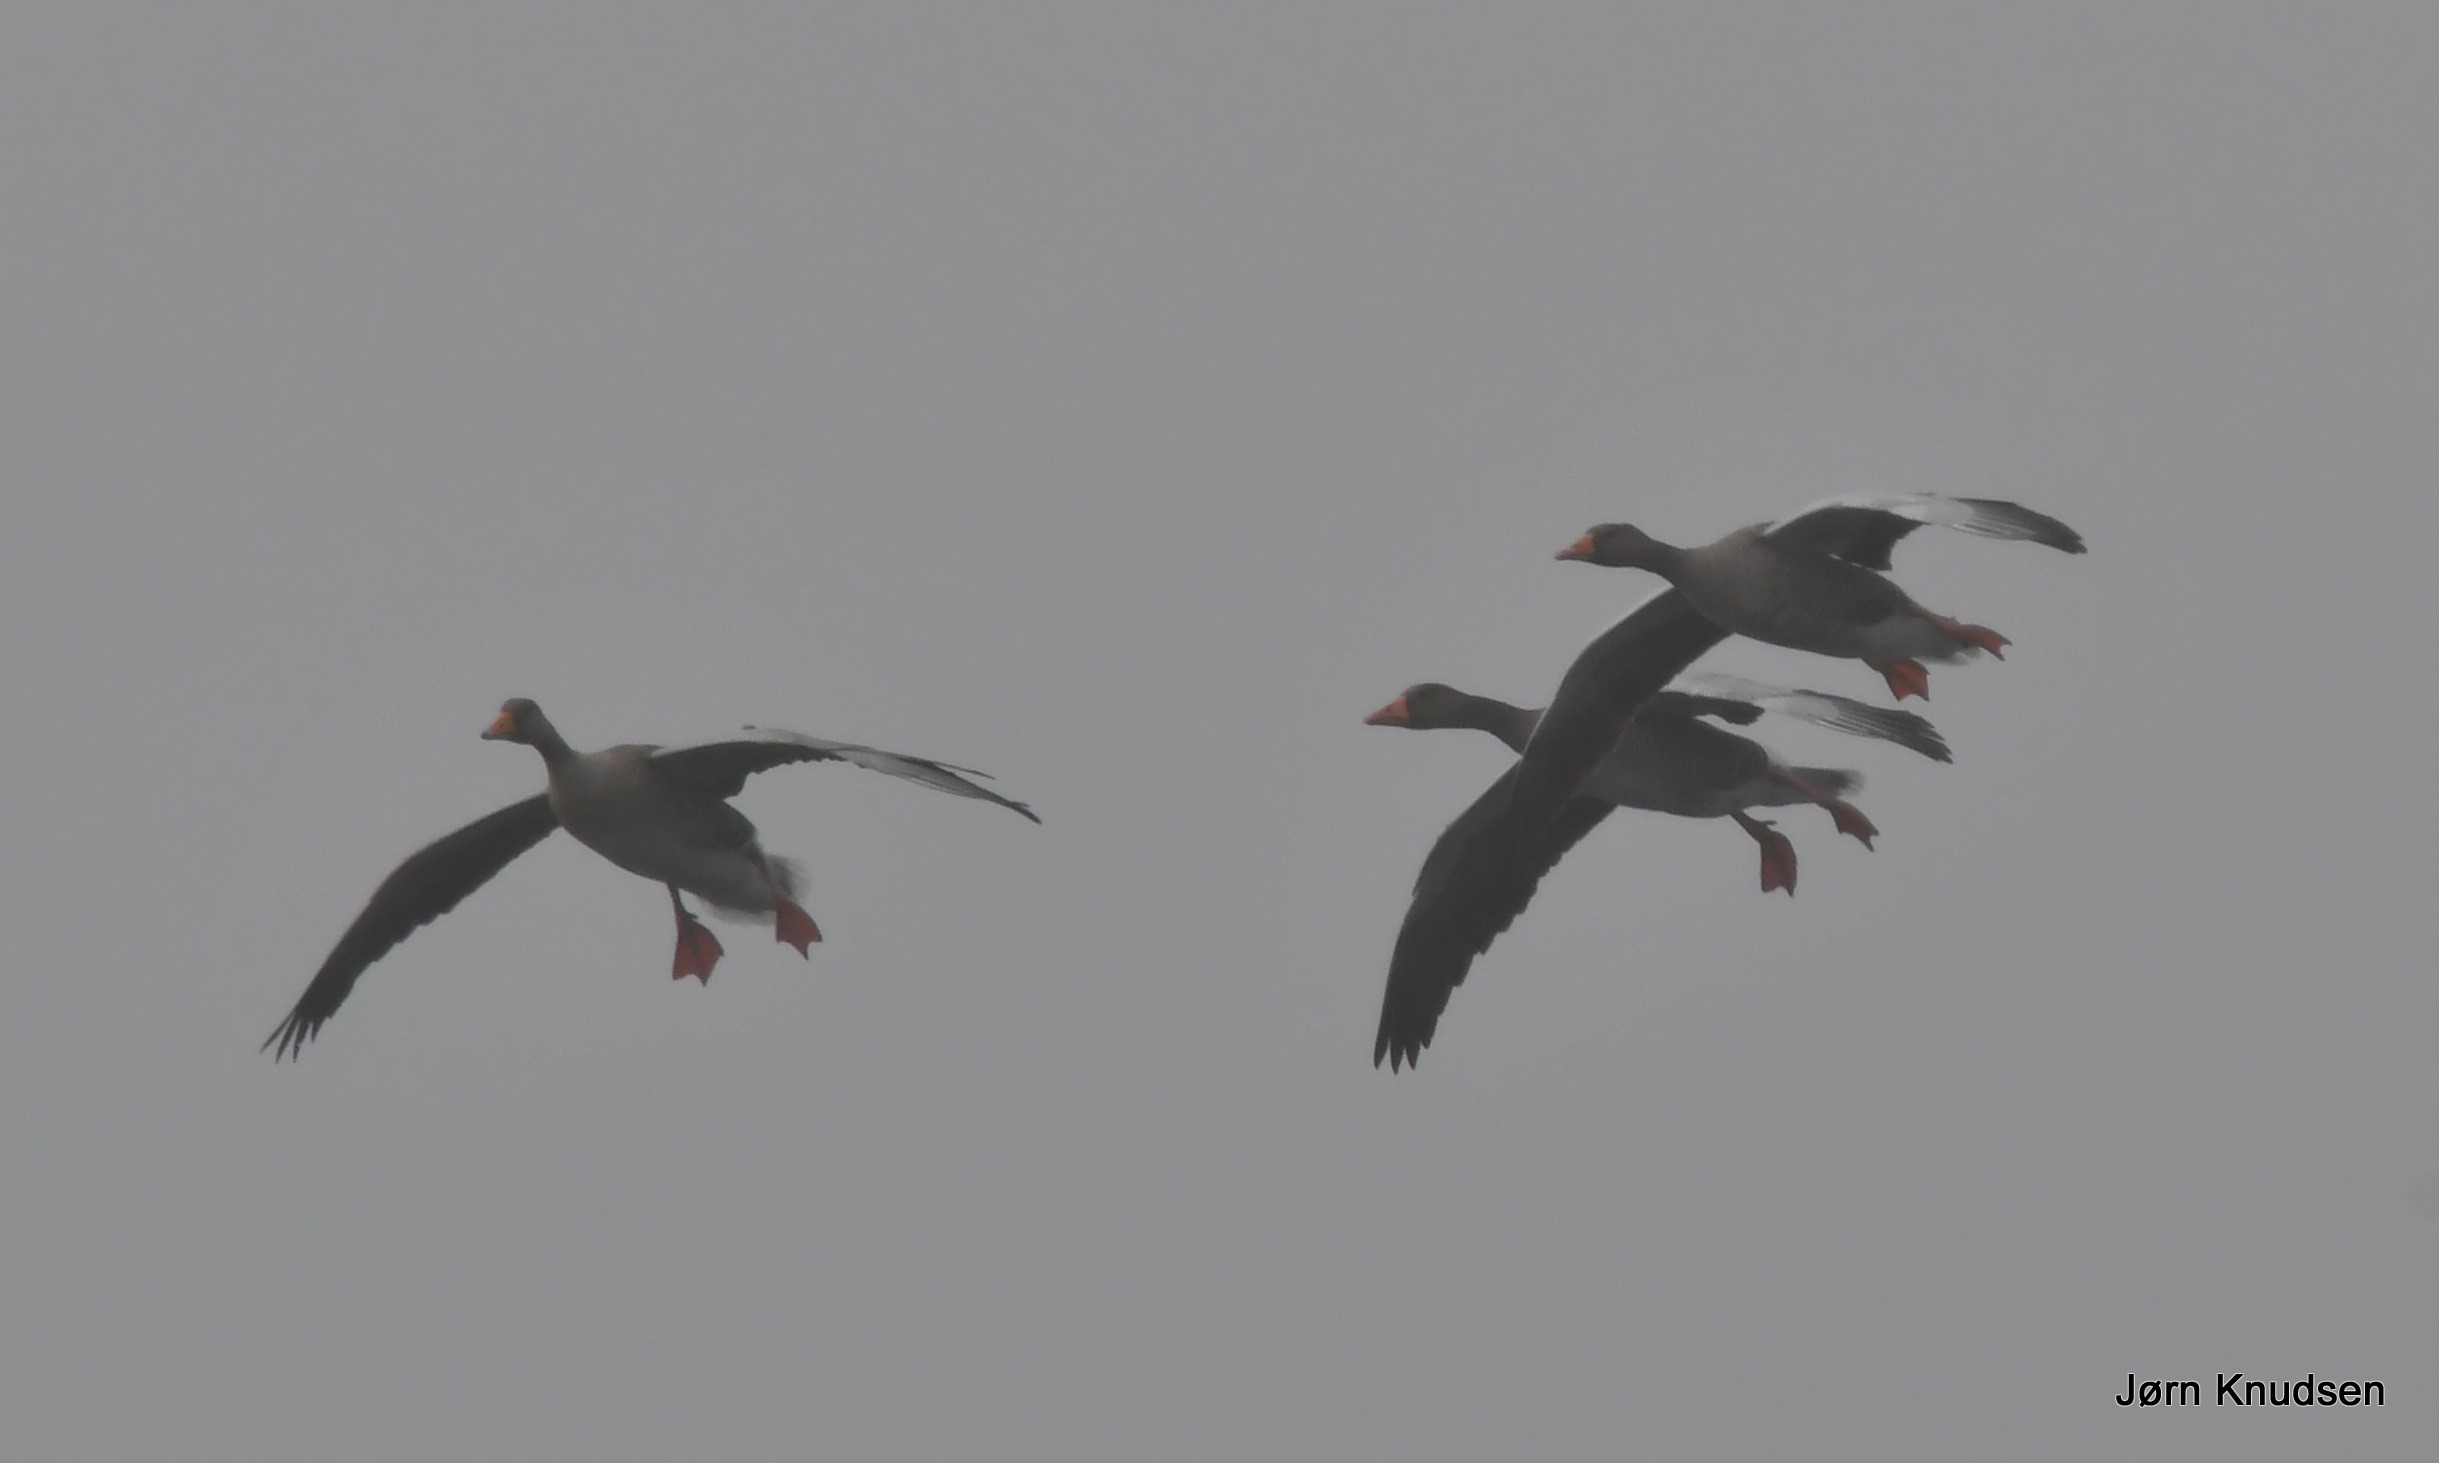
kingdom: Animalia
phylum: Chordata
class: Aves
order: Anseriformes
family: Anatidae
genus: Anser
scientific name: Anser anser
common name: Grågås
